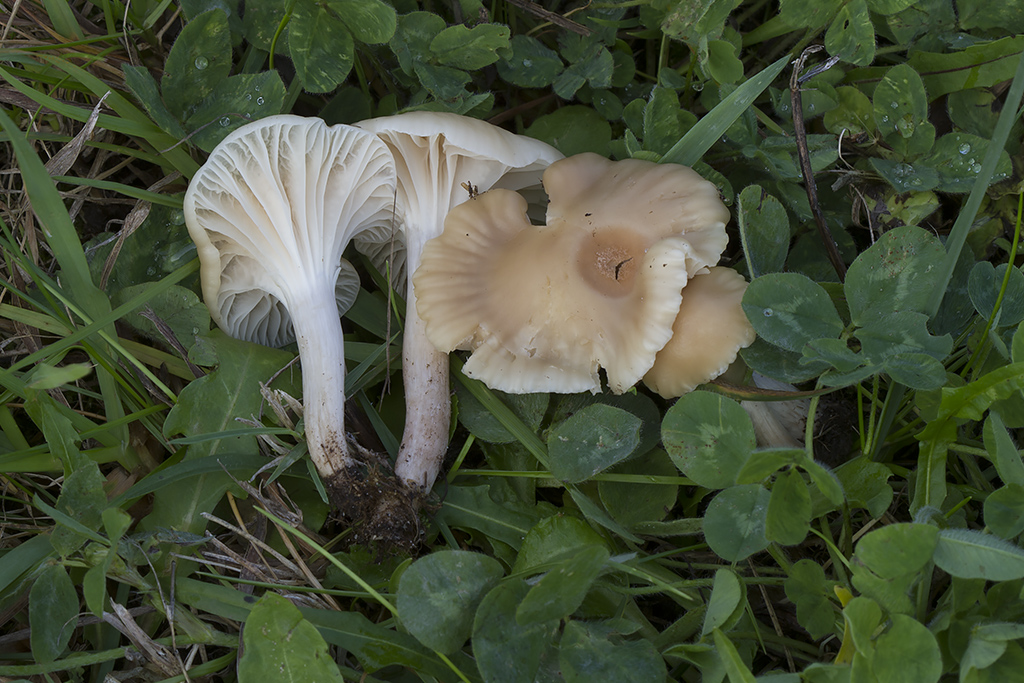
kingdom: Fungi
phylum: Basidiomycota
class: Agaricomycetes
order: Agaricales
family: Hygrophoraceae
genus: Cuphophyllus
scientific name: Cuphophyllus virgineus
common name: isabella-vokshat
